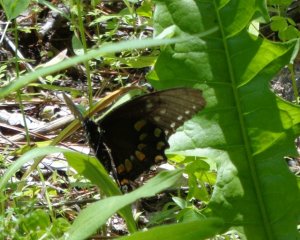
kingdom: Animalia
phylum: Arthropoda
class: Insecta
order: Lepidoptera
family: Papilionidae
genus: Papilio
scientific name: Papilio polyxenes
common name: Black Swallowtail
